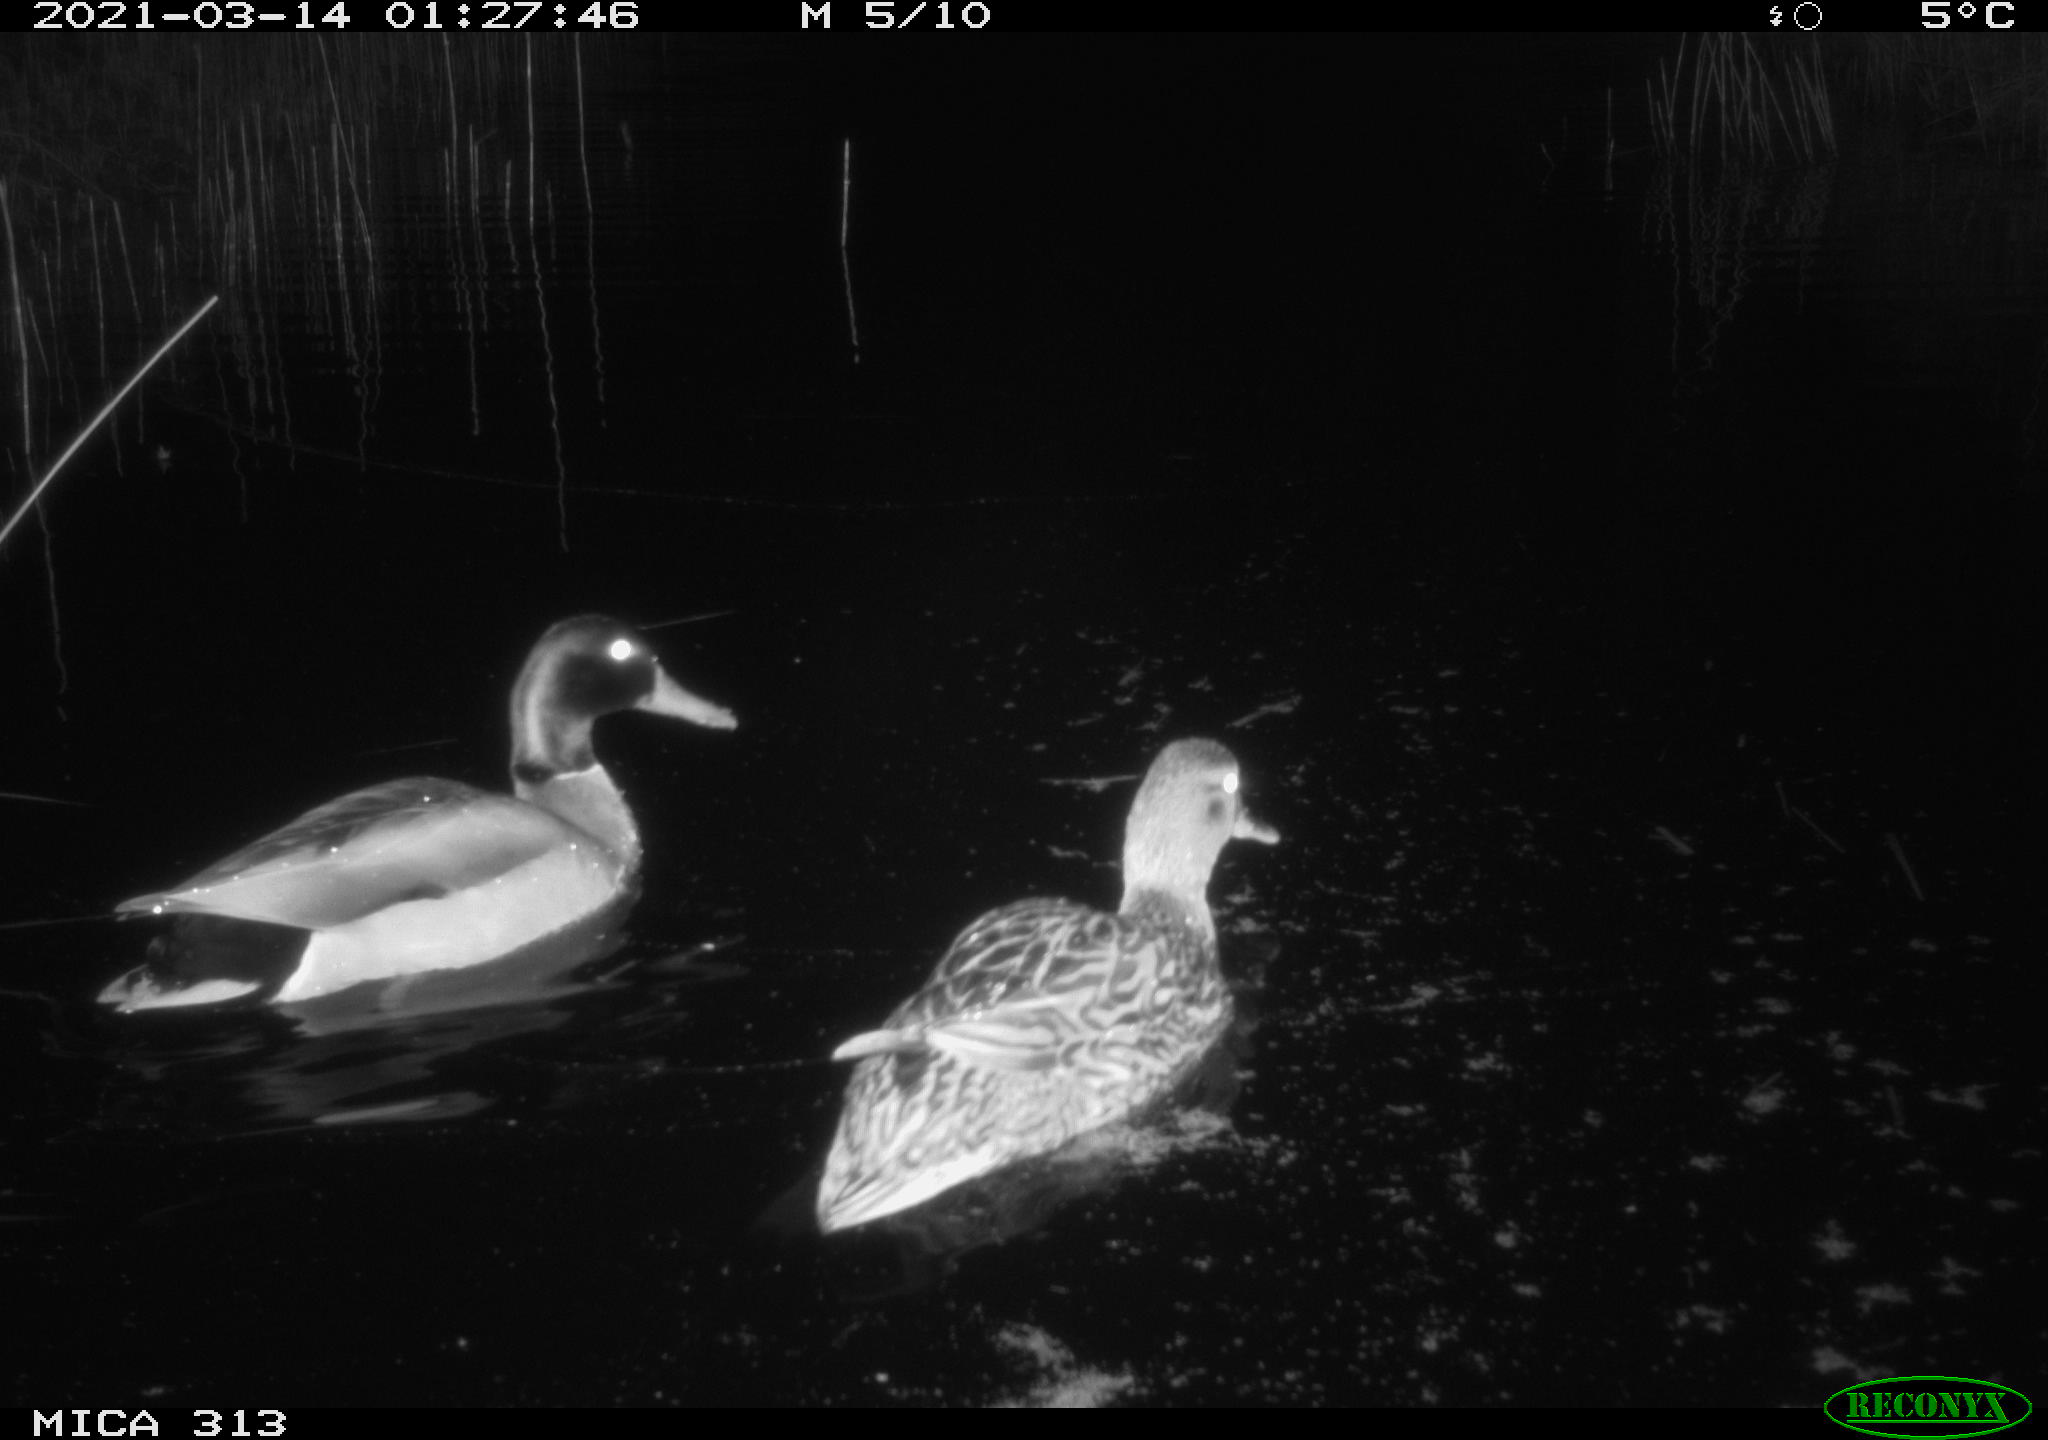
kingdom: Animalia
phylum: Chordata
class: Aves
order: Anseriformes
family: Anatidae
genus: Anas
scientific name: Anas platyrhynchos
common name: Mallard
